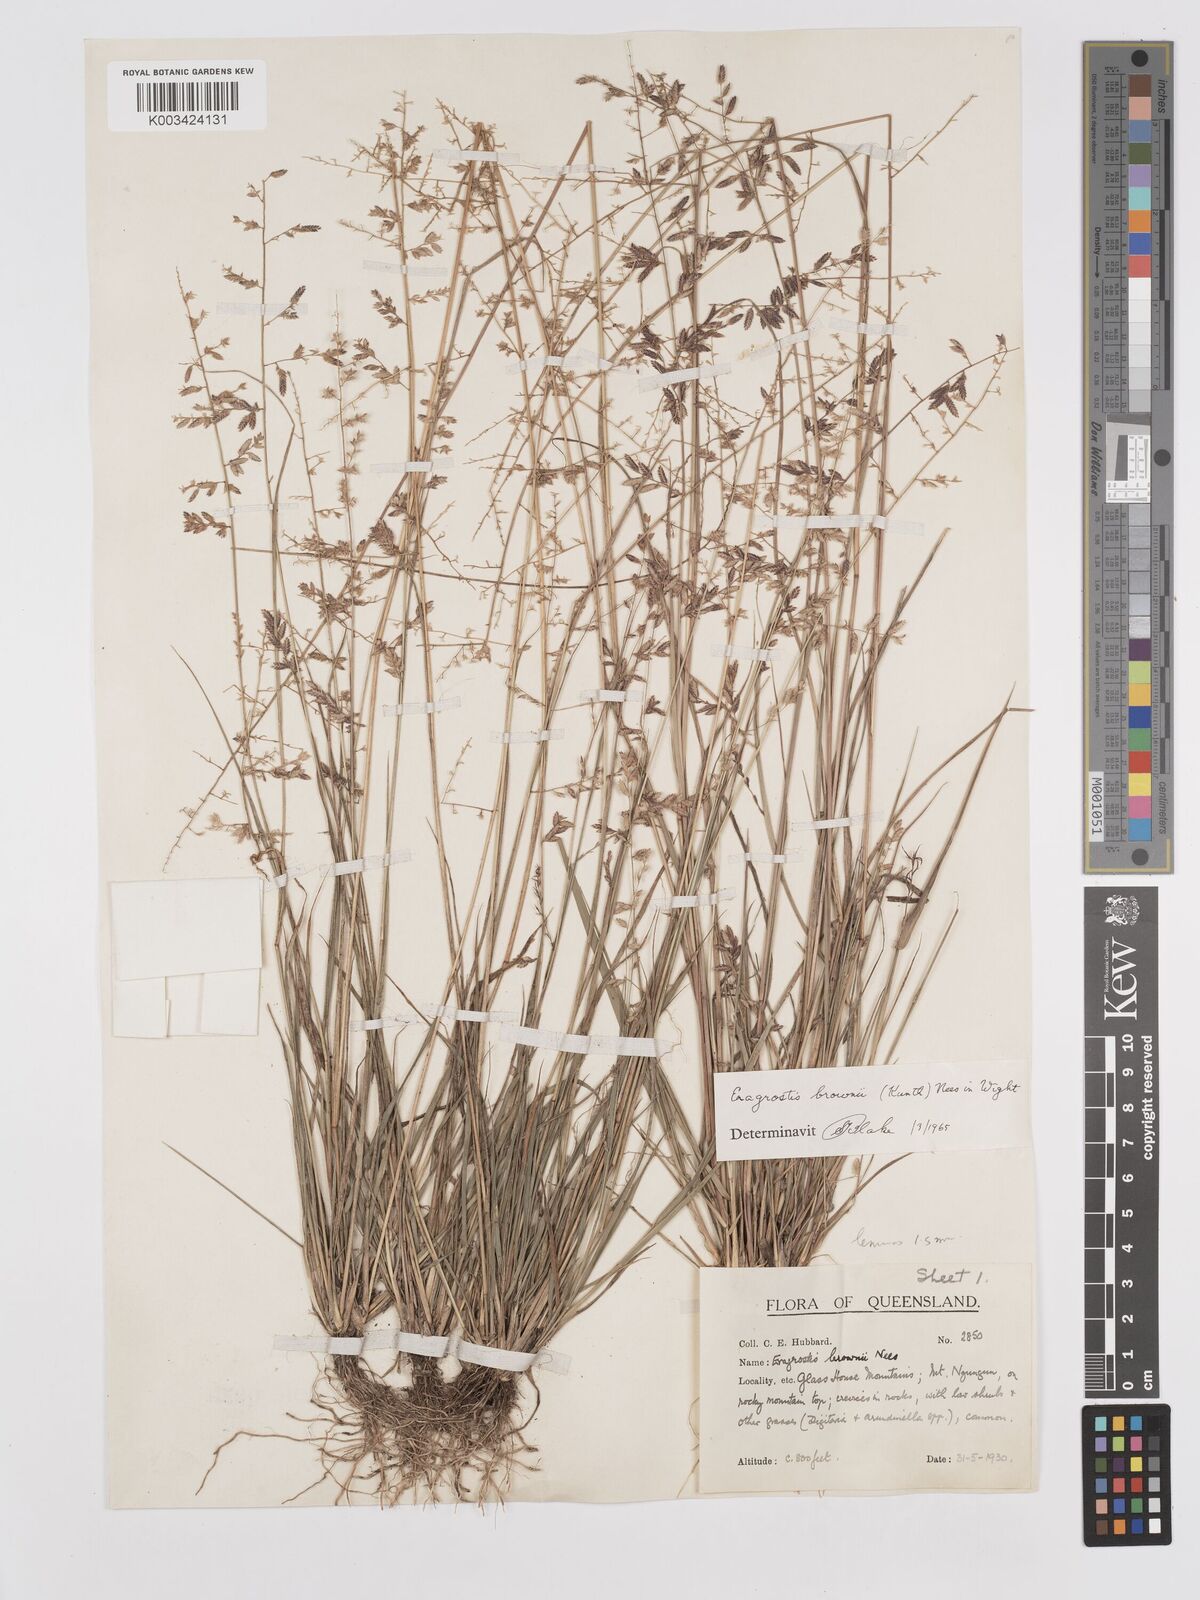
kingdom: Plantae
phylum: Tracheophyta
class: Liliopsida
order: Poales
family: Poaceae
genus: Eragrostis
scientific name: Eragrostis brownii
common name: Lovegrass
